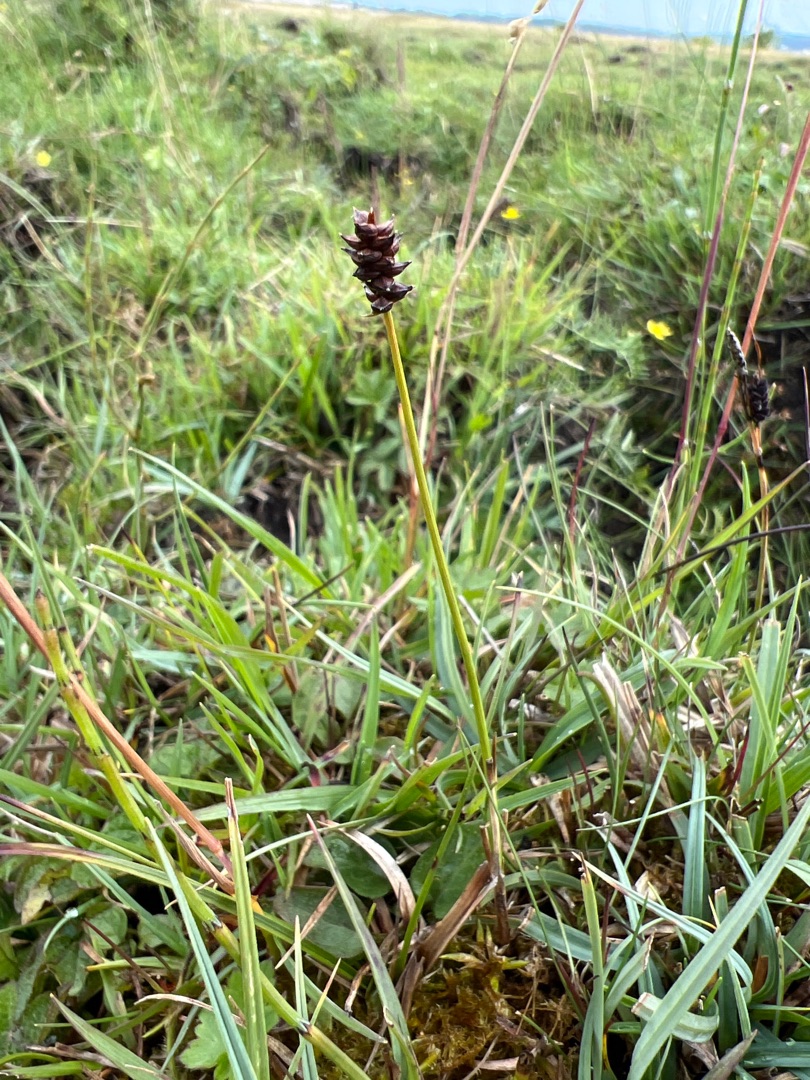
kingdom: Plantae
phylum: Tracheophyta
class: Liliopsida
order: Poales
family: Cyperaceae
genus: Carex
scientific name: Carex dioica
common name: Tvebo star
